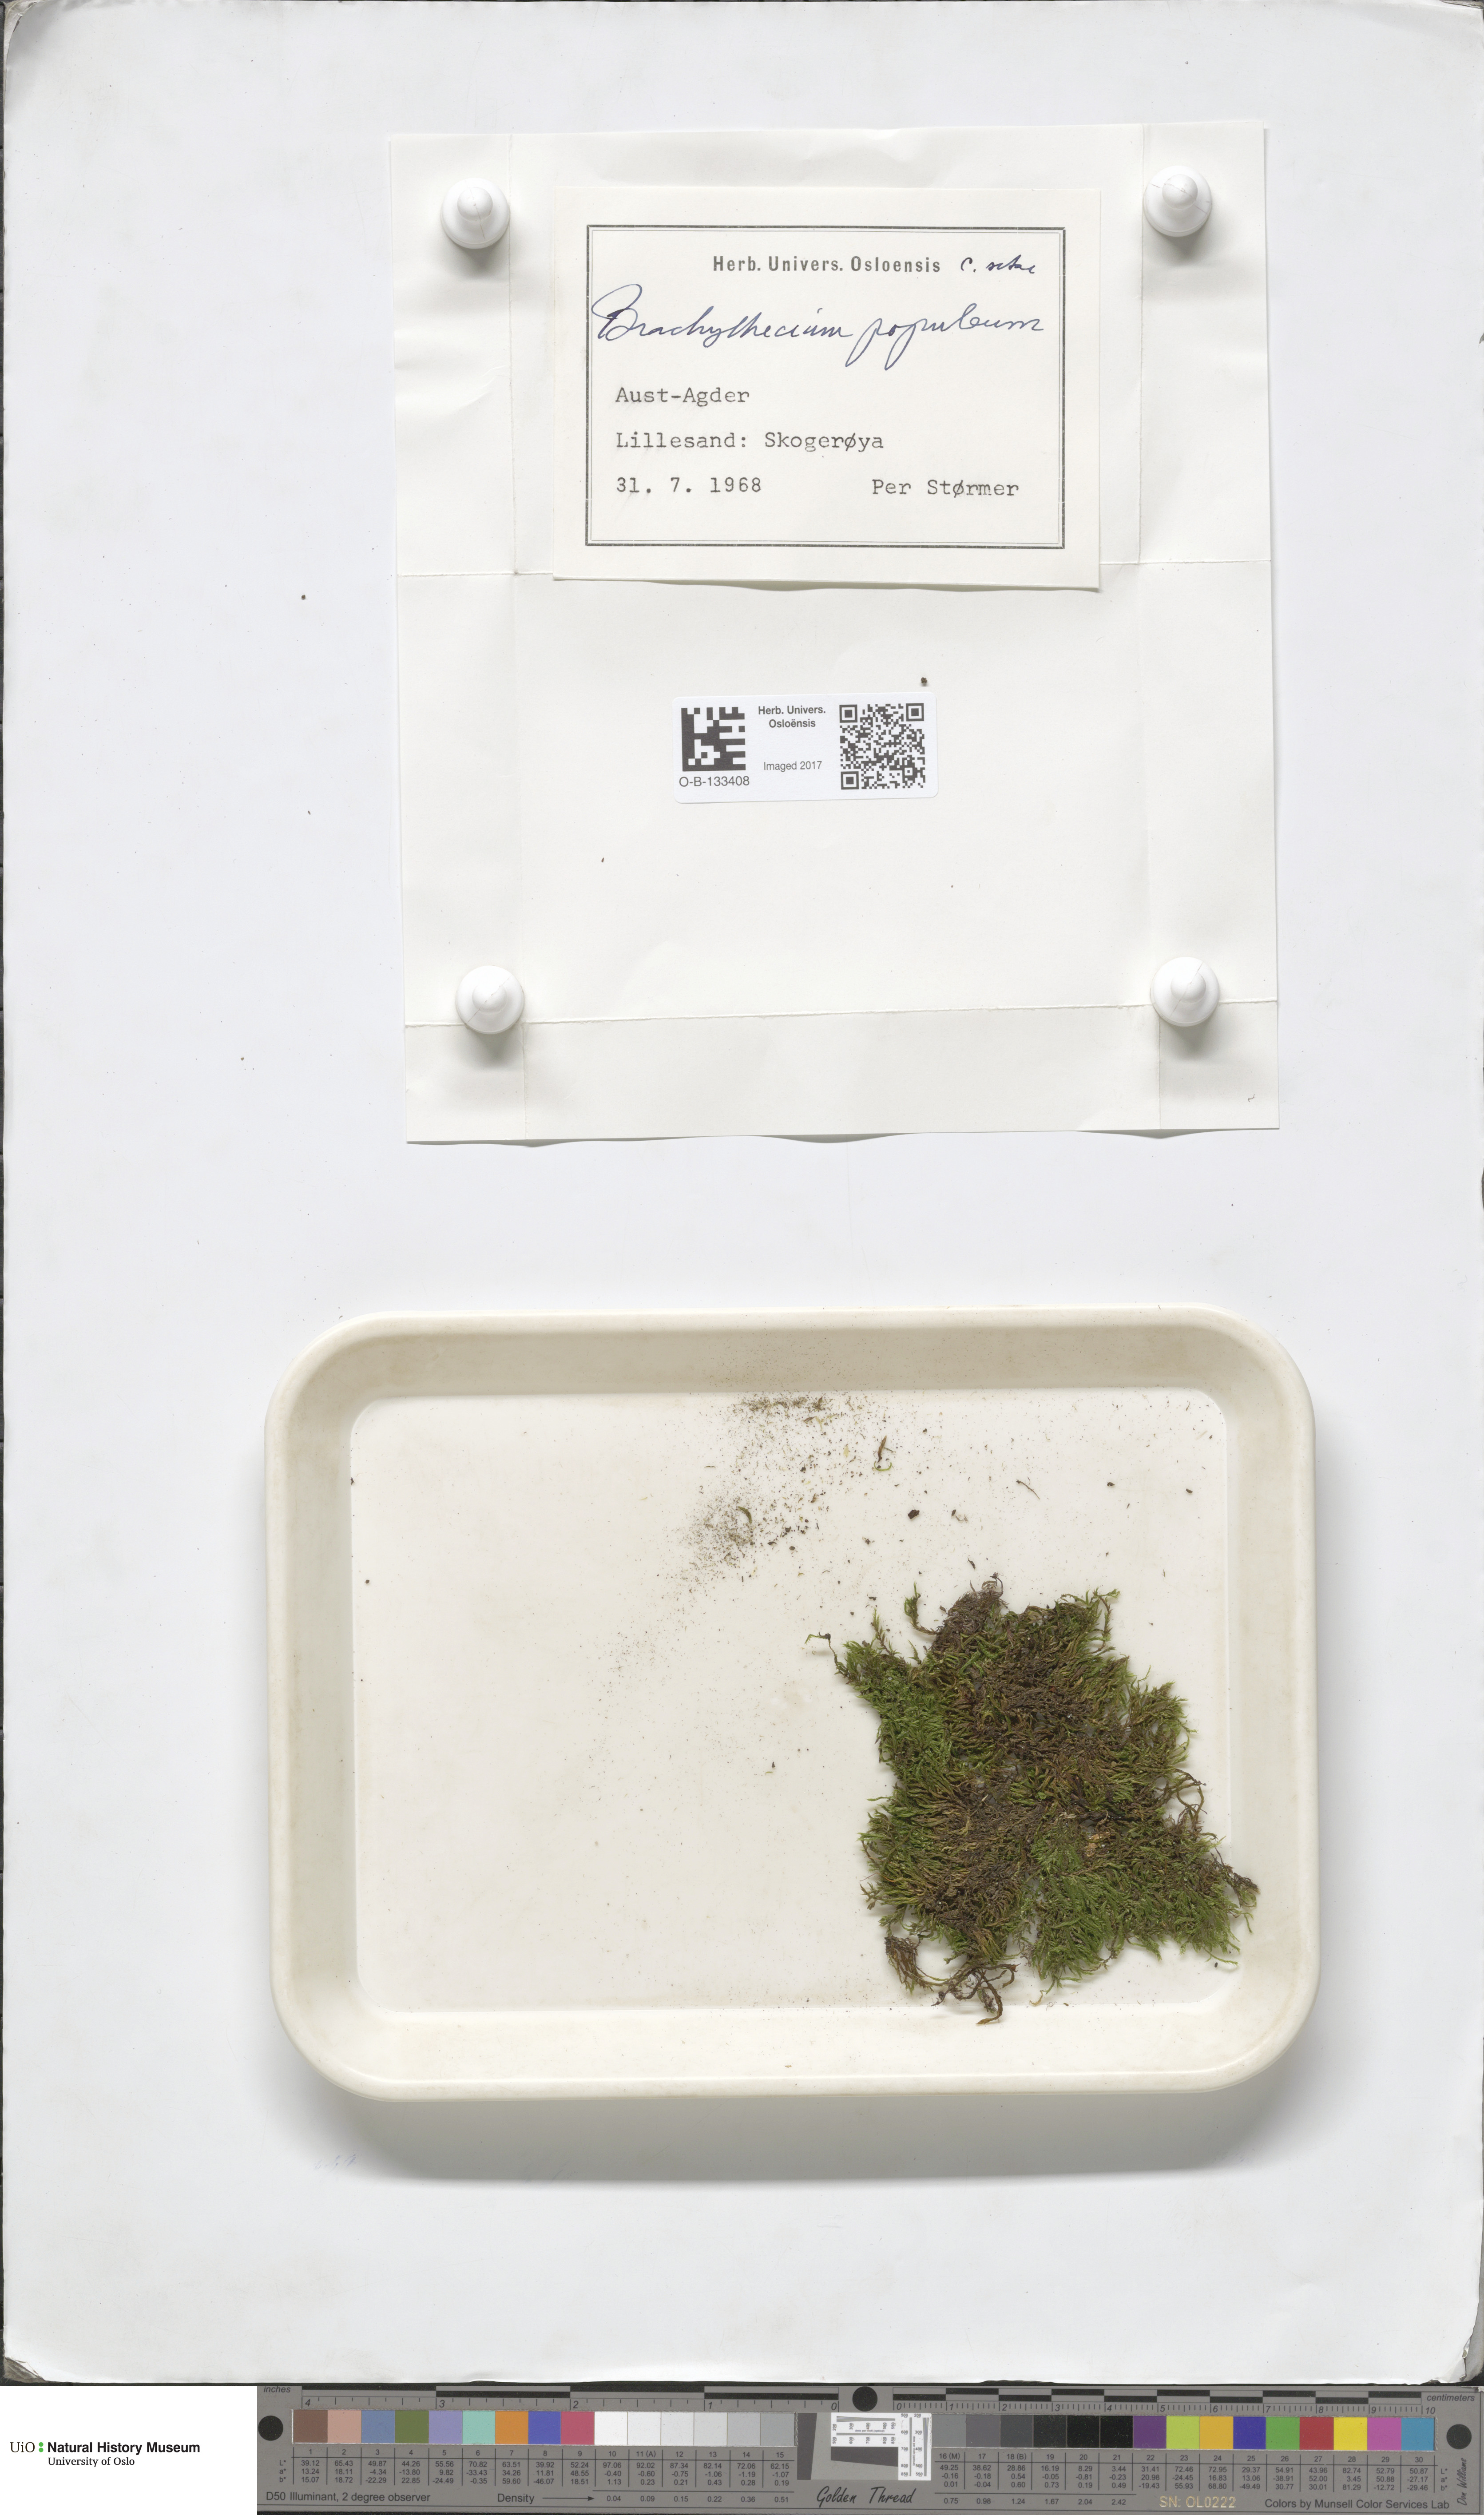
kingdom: Plantae
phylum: Bryophyta
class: Bryopsida
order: Hypnales
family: Brachytheciaceae
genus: Sciuro-hypnum
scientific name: Sciuro-hypnum plumosum
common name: Rusty feather-moss
